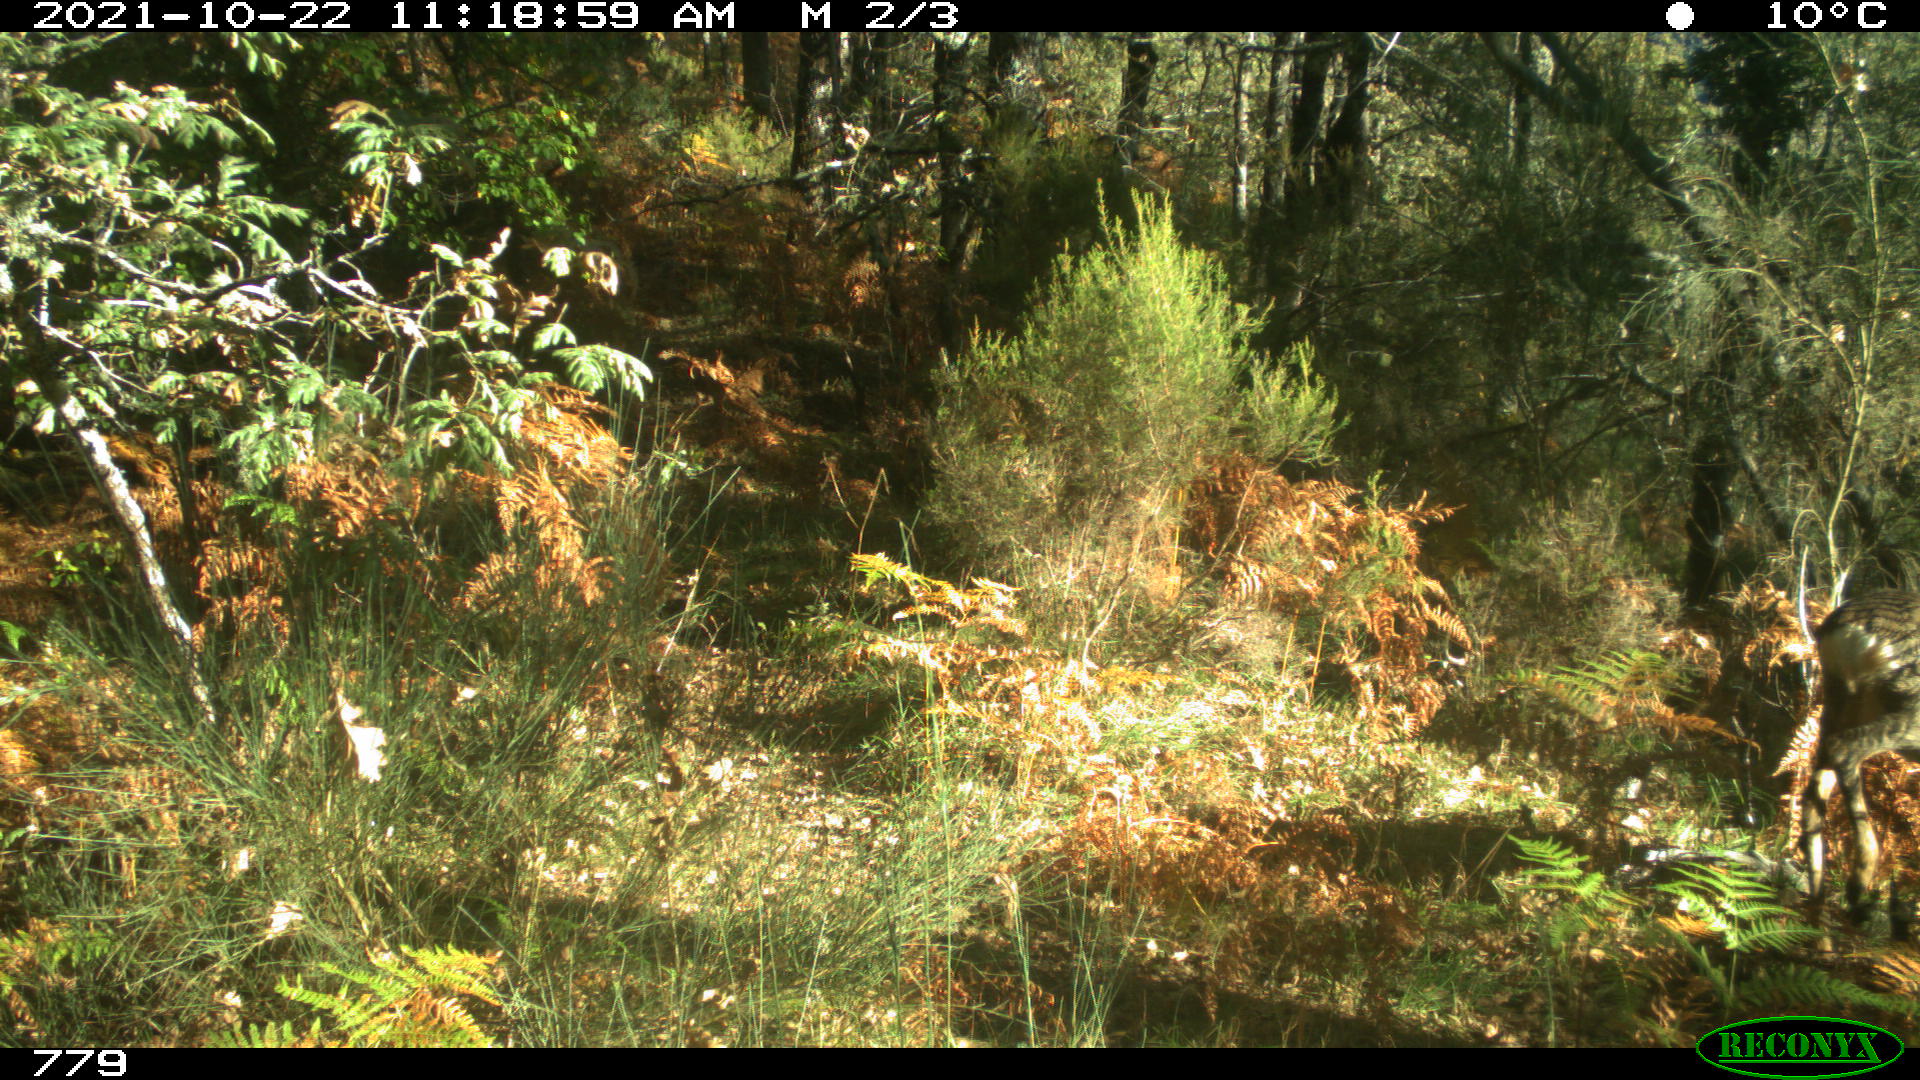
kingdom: Animalia
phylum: Chordata
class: Mammalia
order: Artiodactyla
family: Cervidae
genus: Capreolus
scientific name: Capreolus capreolus
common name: Western roe deer
